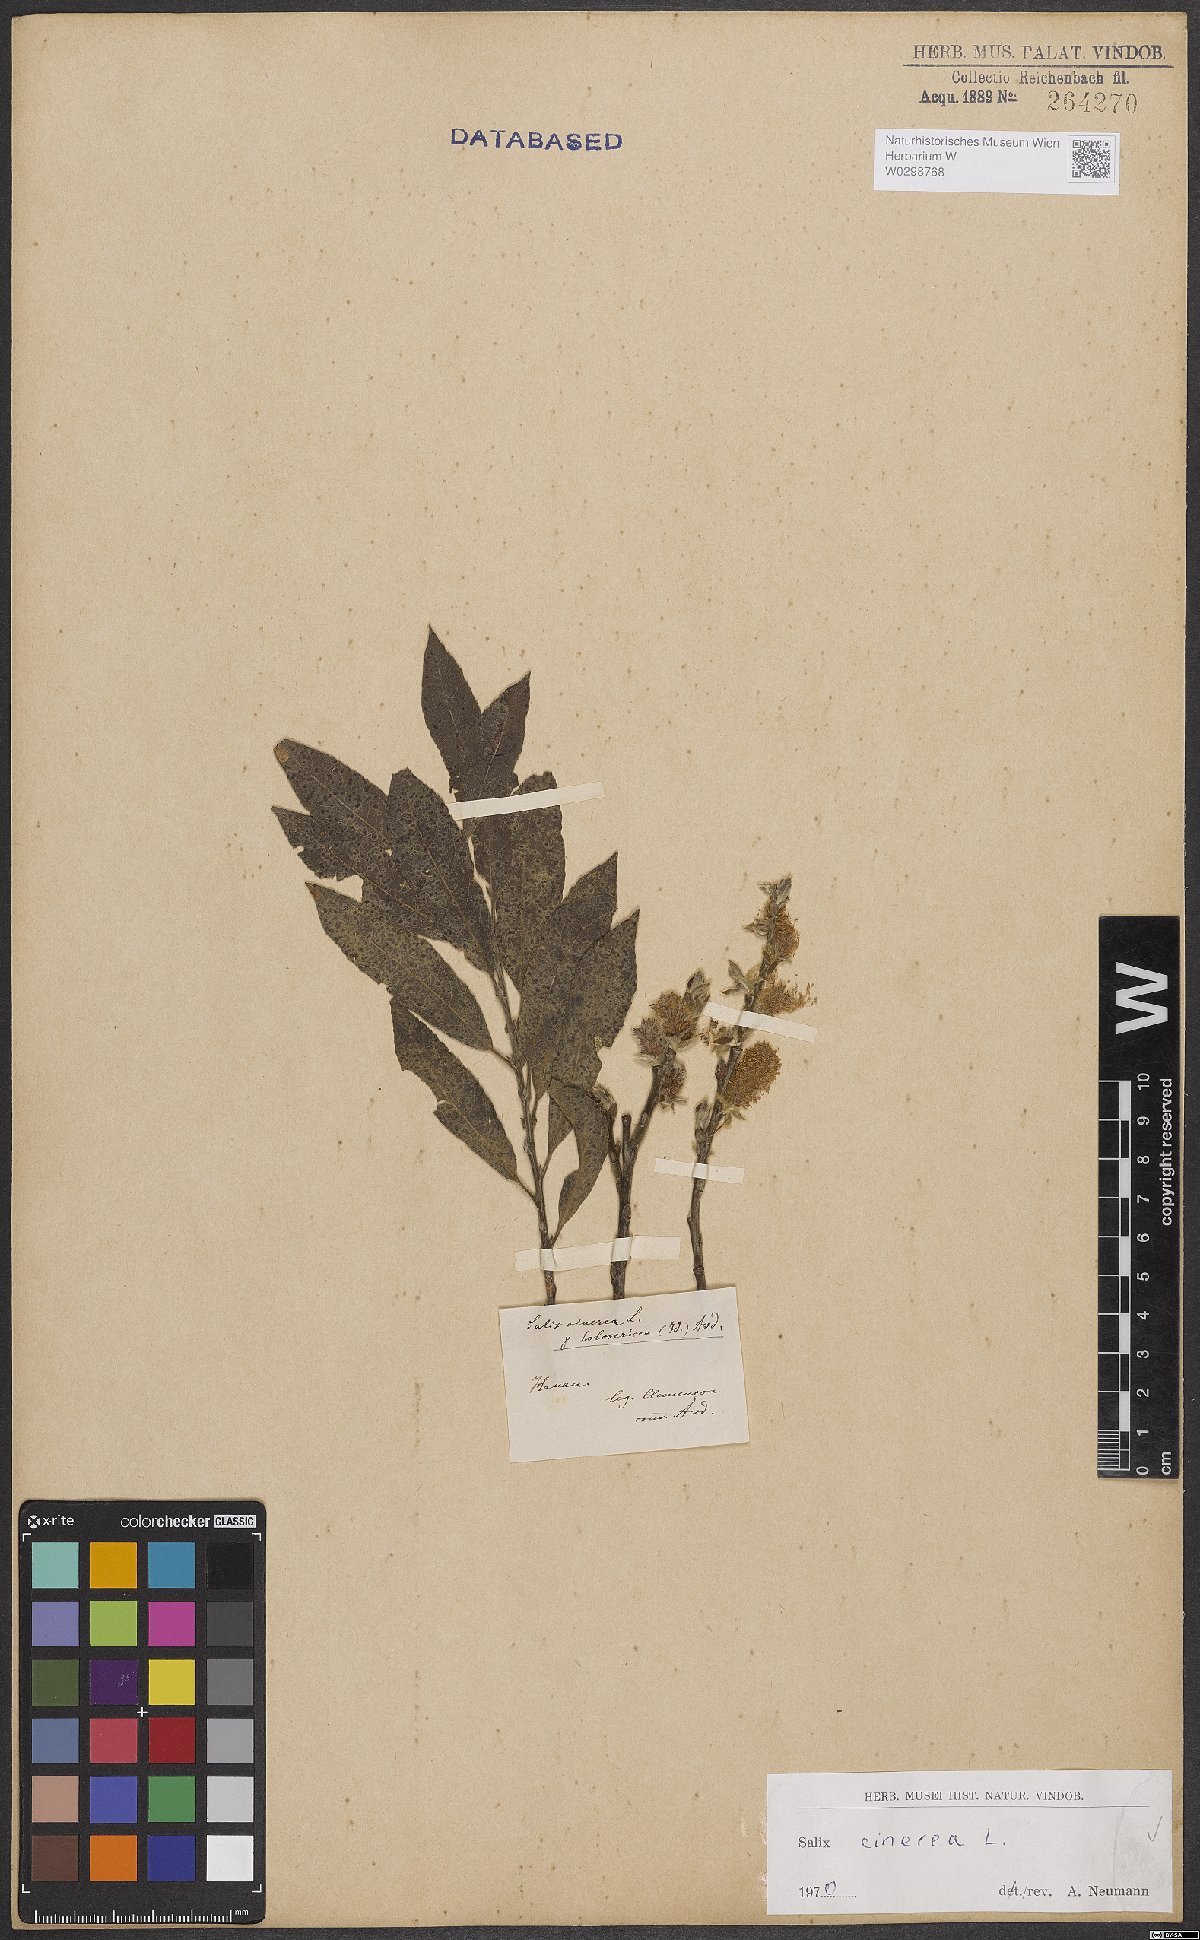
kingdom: Plantae
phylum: Tracheophyta
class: Magnoliopsida
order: Malpighiales
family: Salicaceae
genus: Salix
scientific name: Salix cinerea
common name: Common sallow
